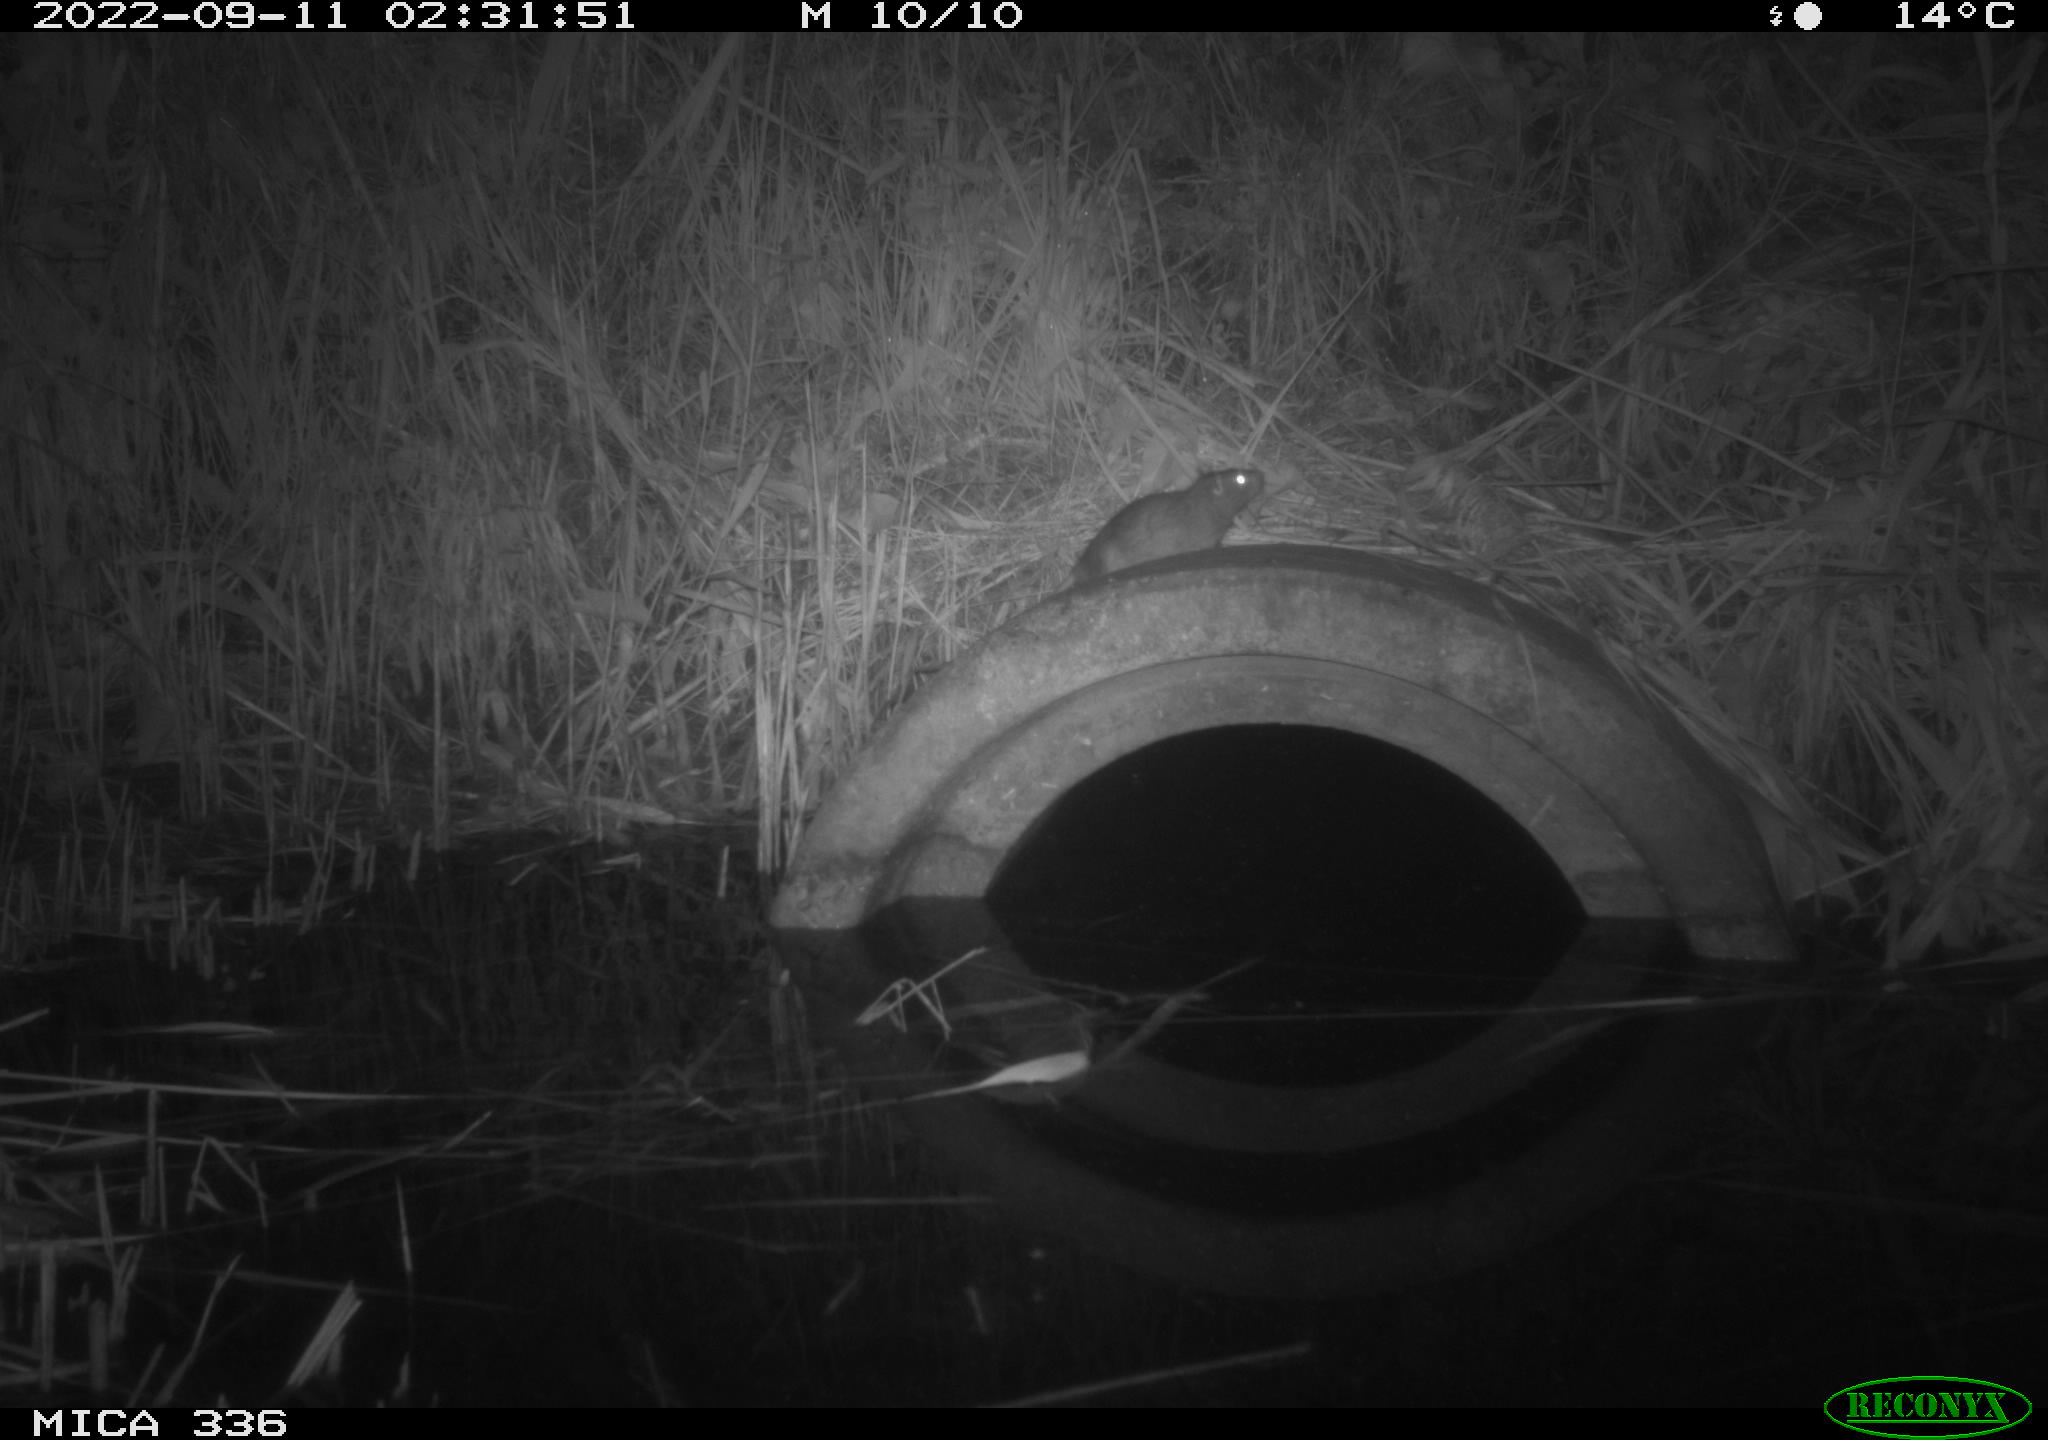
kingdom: Animalia
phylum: Chordata
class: Mammalia
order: Rodentia
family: Muridae
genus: Rattus
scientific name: Rattus norvegicus
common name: Brown rat
